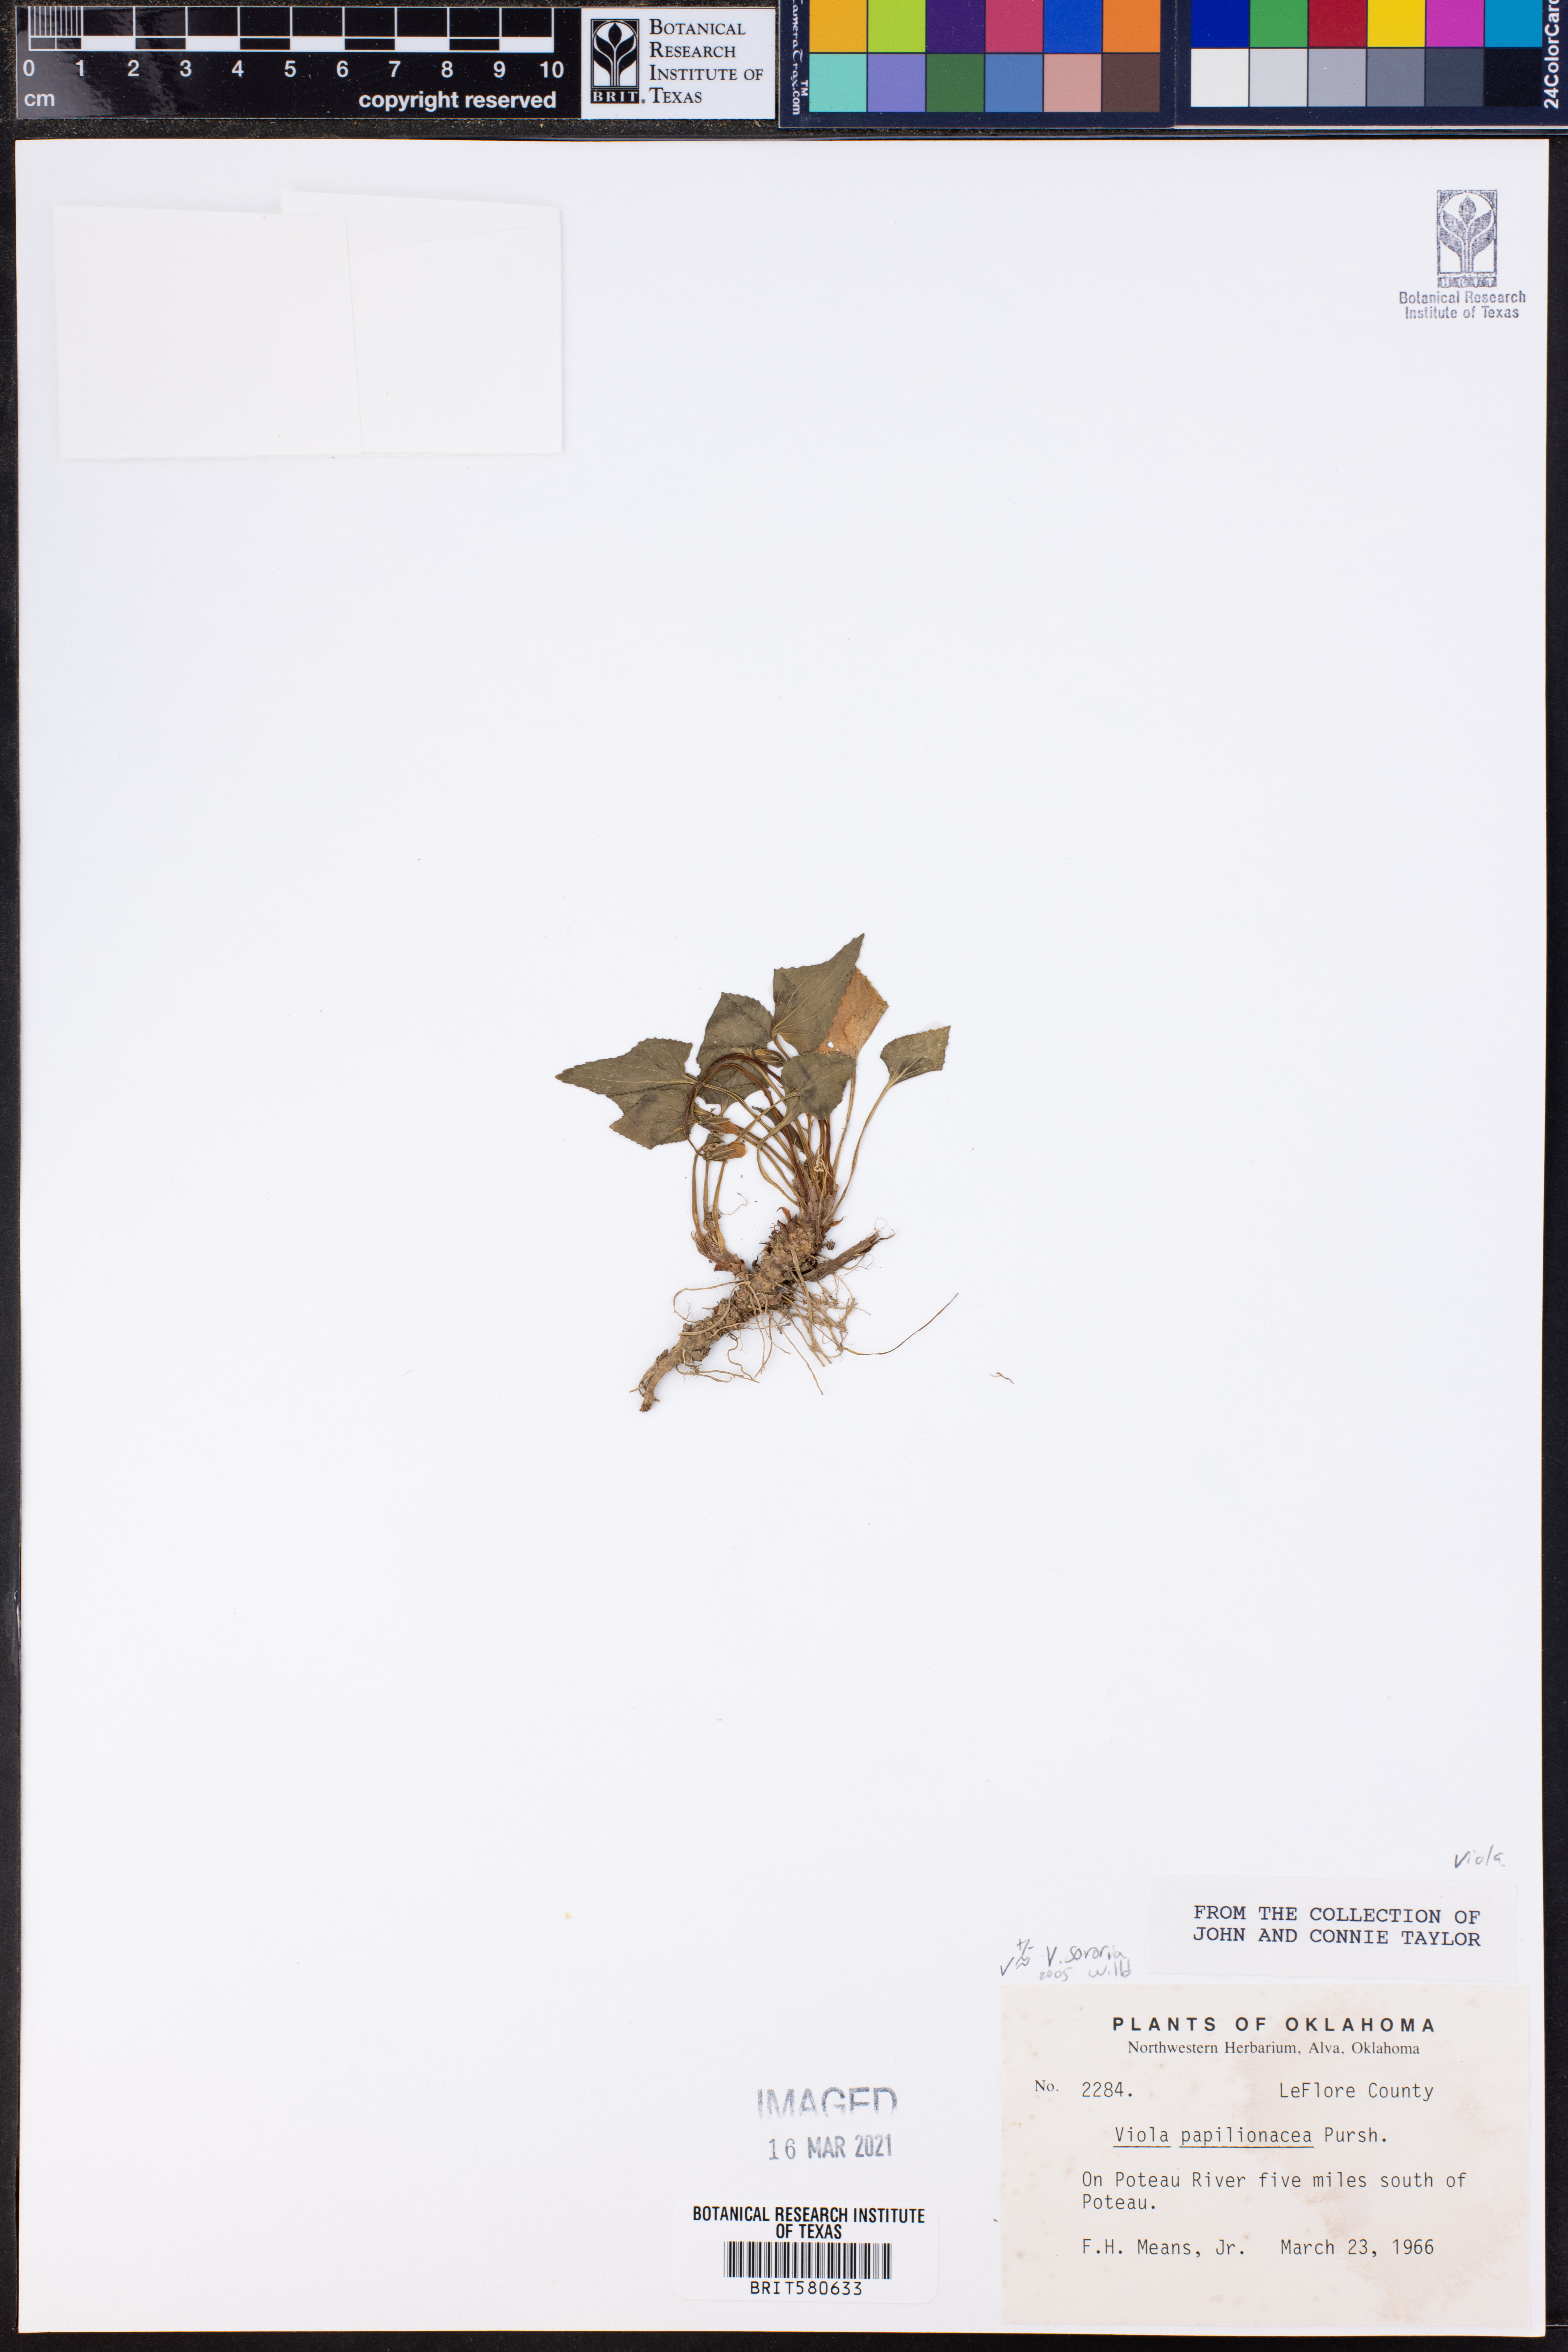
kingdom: Plantae
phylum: Tracheophyta
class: Magnoliopsida
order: Malpighiales
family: Violaceae
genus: Viola
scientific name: Viola sororia
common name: Dooryard violet
